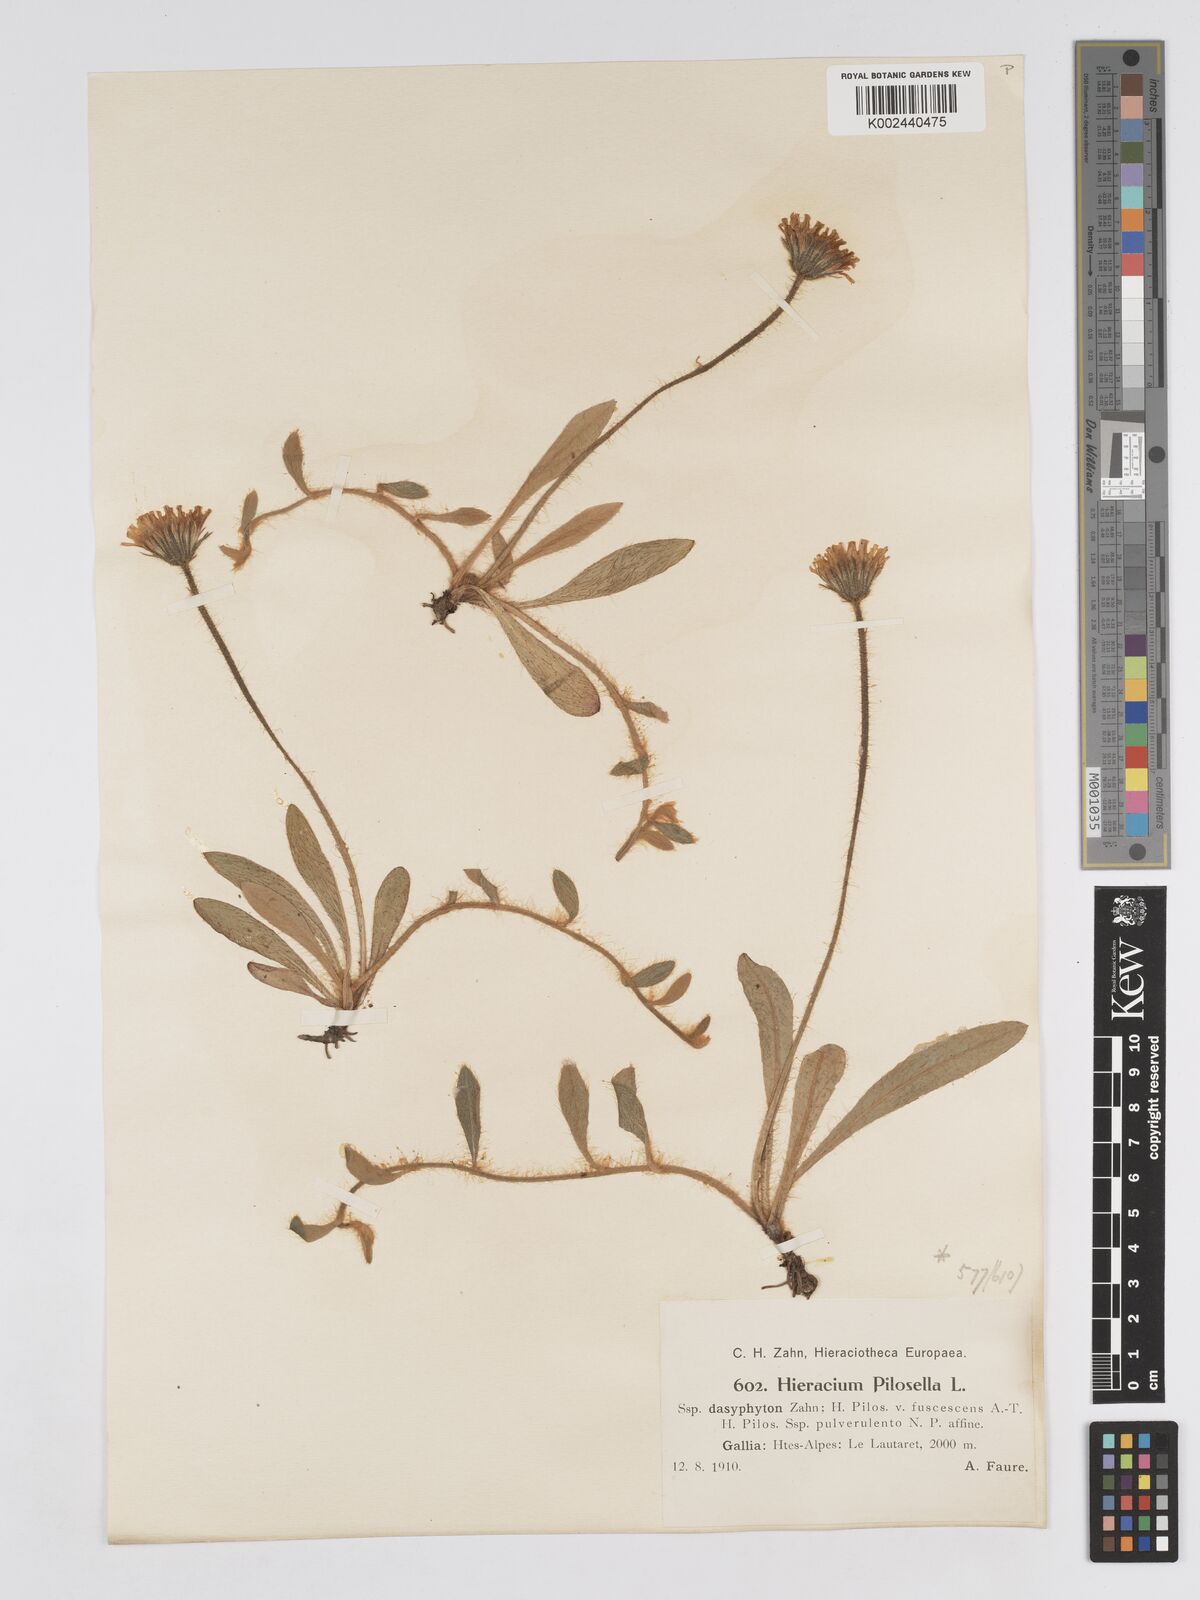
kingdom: Plantae
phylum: Tracheophyta
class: Magnoliopsida
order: Asterales
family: Asteraceae
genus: Pilosella
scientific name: Pilosella officinarum
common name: Mouse-ear hawkweed
